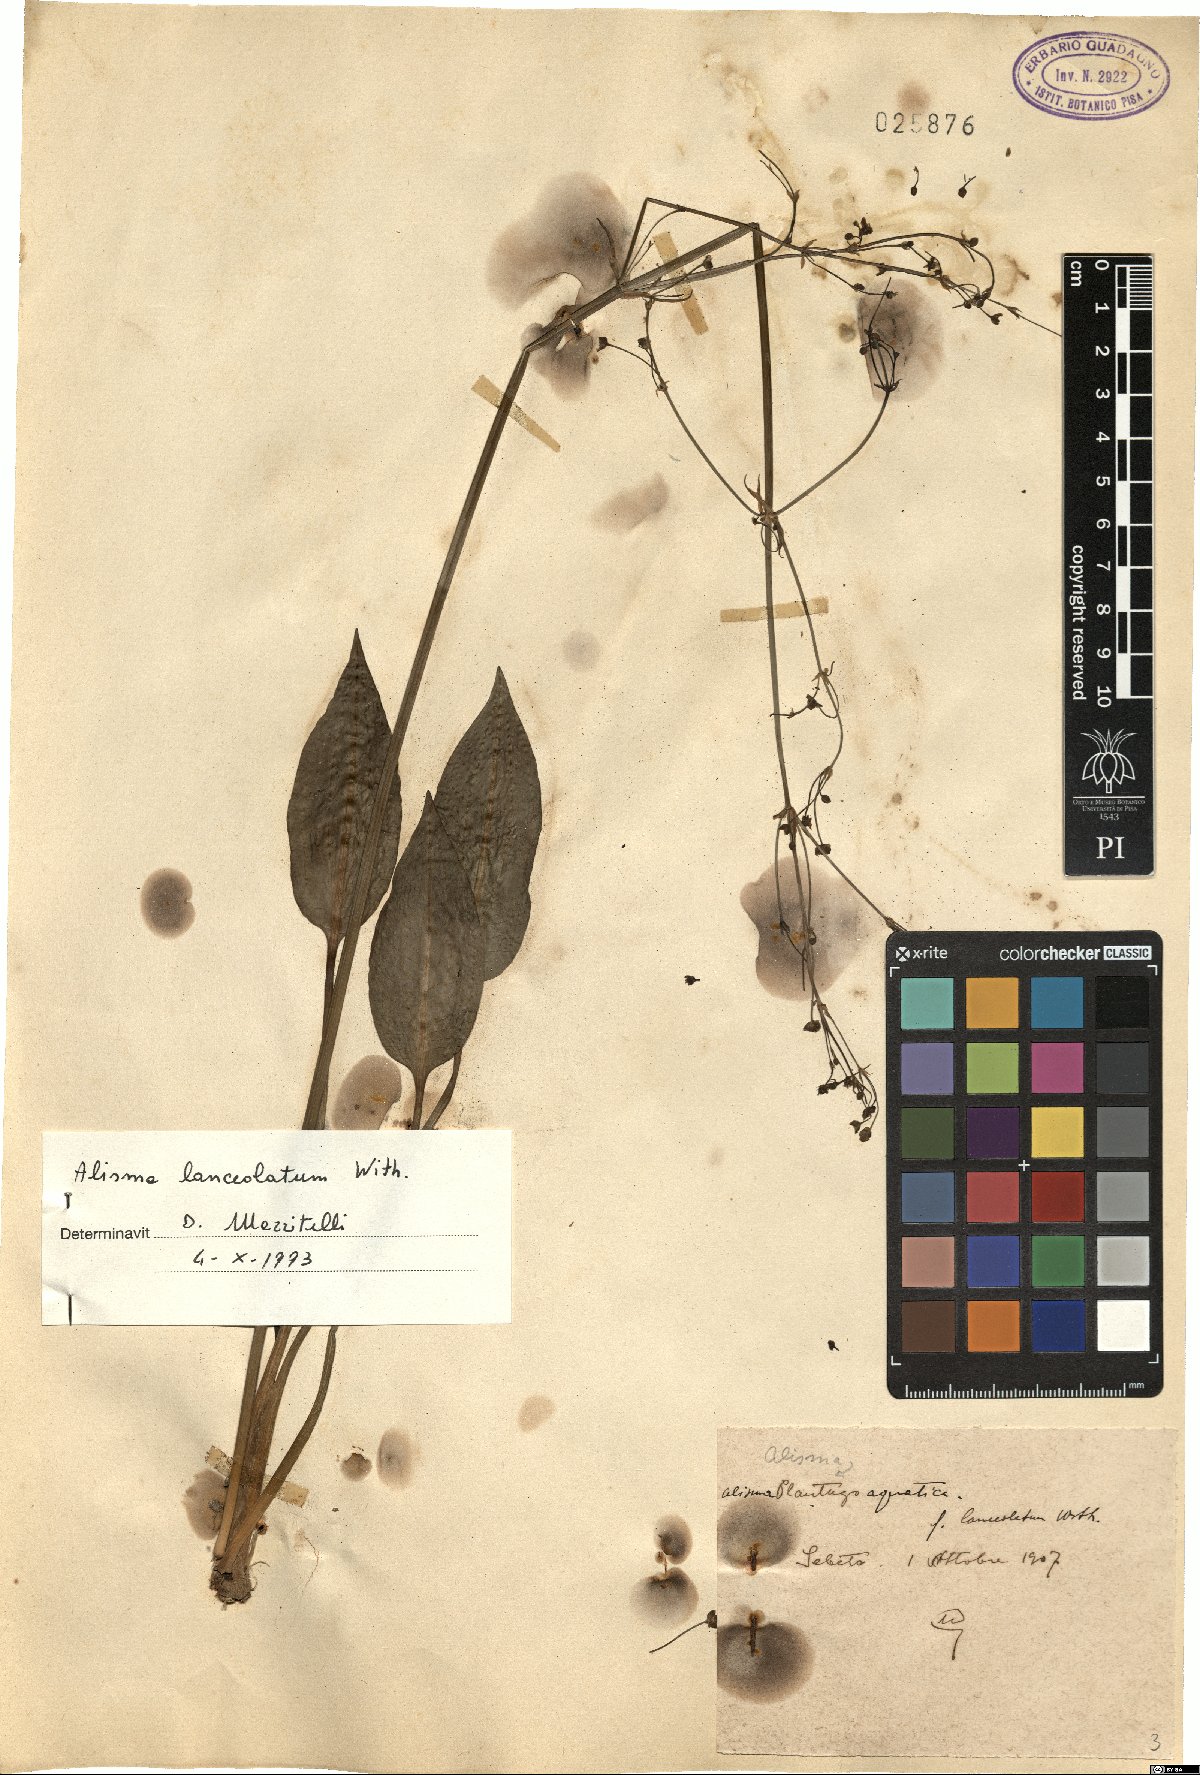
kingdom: Plantae
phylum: Tracheophyta
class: Liliopsida
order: Alismatales
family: Alismataceae
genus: Alisma
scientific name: Alisma lanceolatum
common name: Narrow-leaved water-plantain
